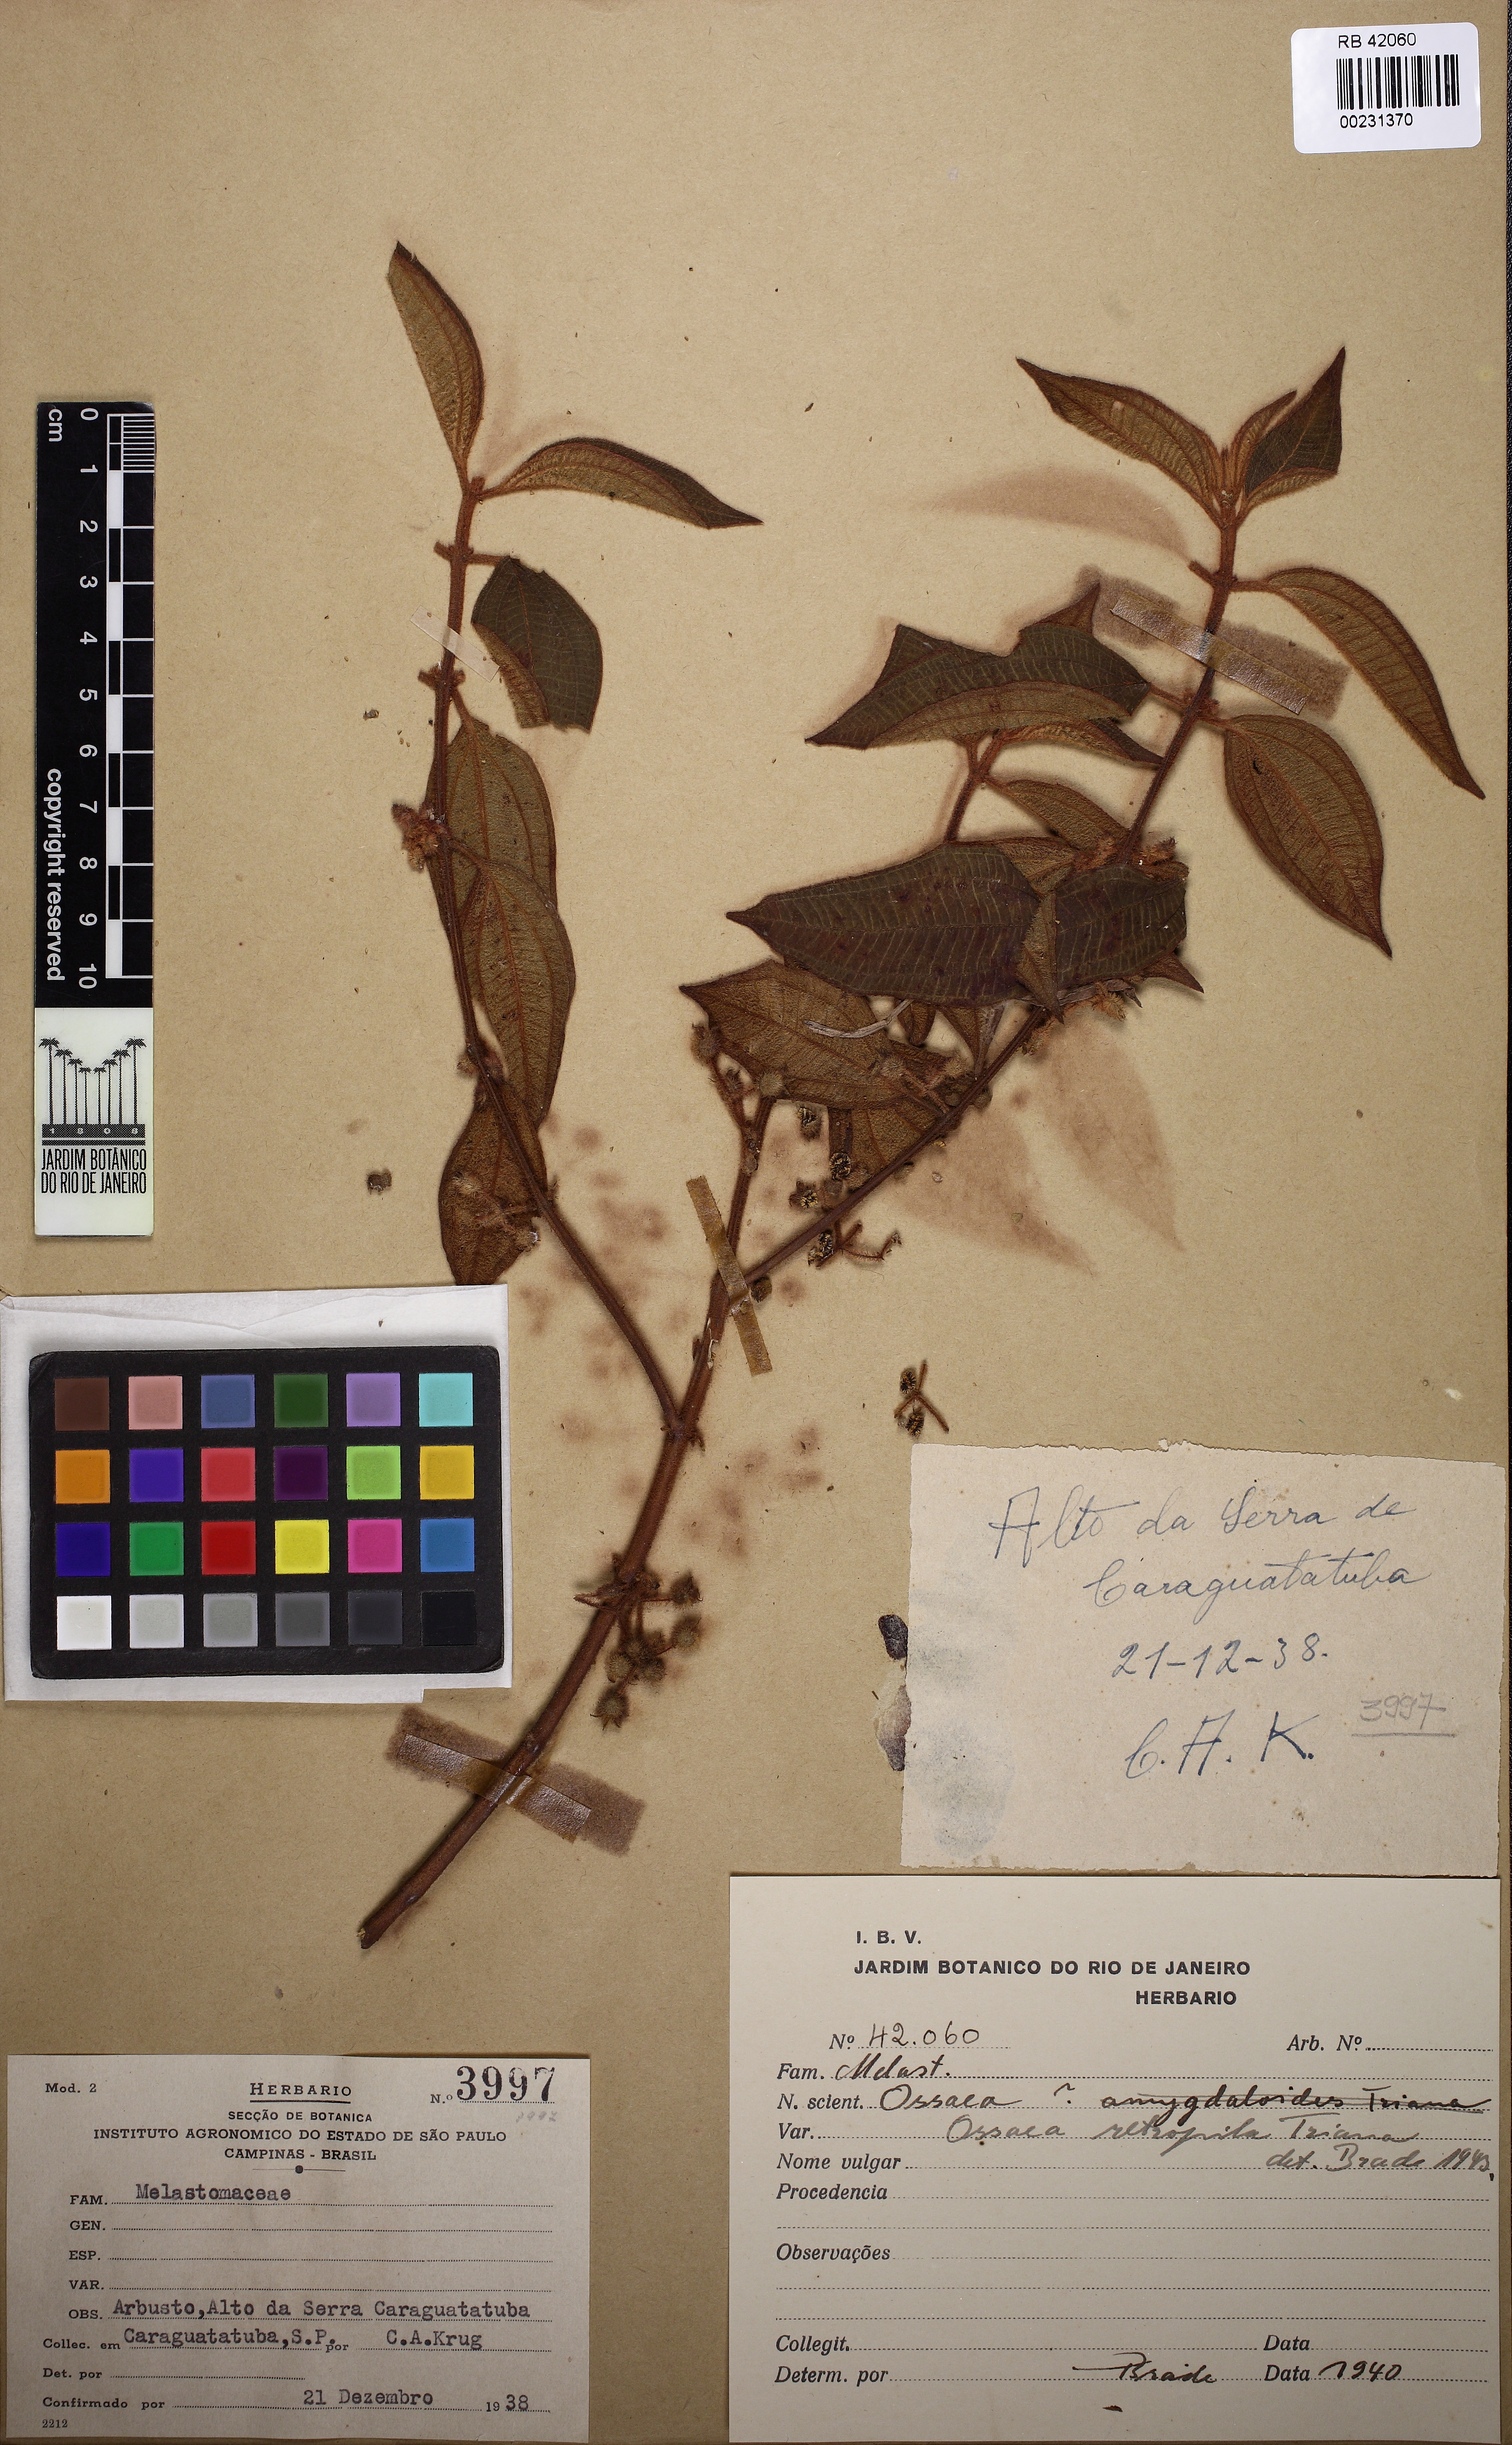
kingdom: Plantae
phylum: Tracheophyta
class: Magnoliopsida
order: Myrtales
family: Melastomataceae
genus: Miconia
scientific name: Miconia rubella
